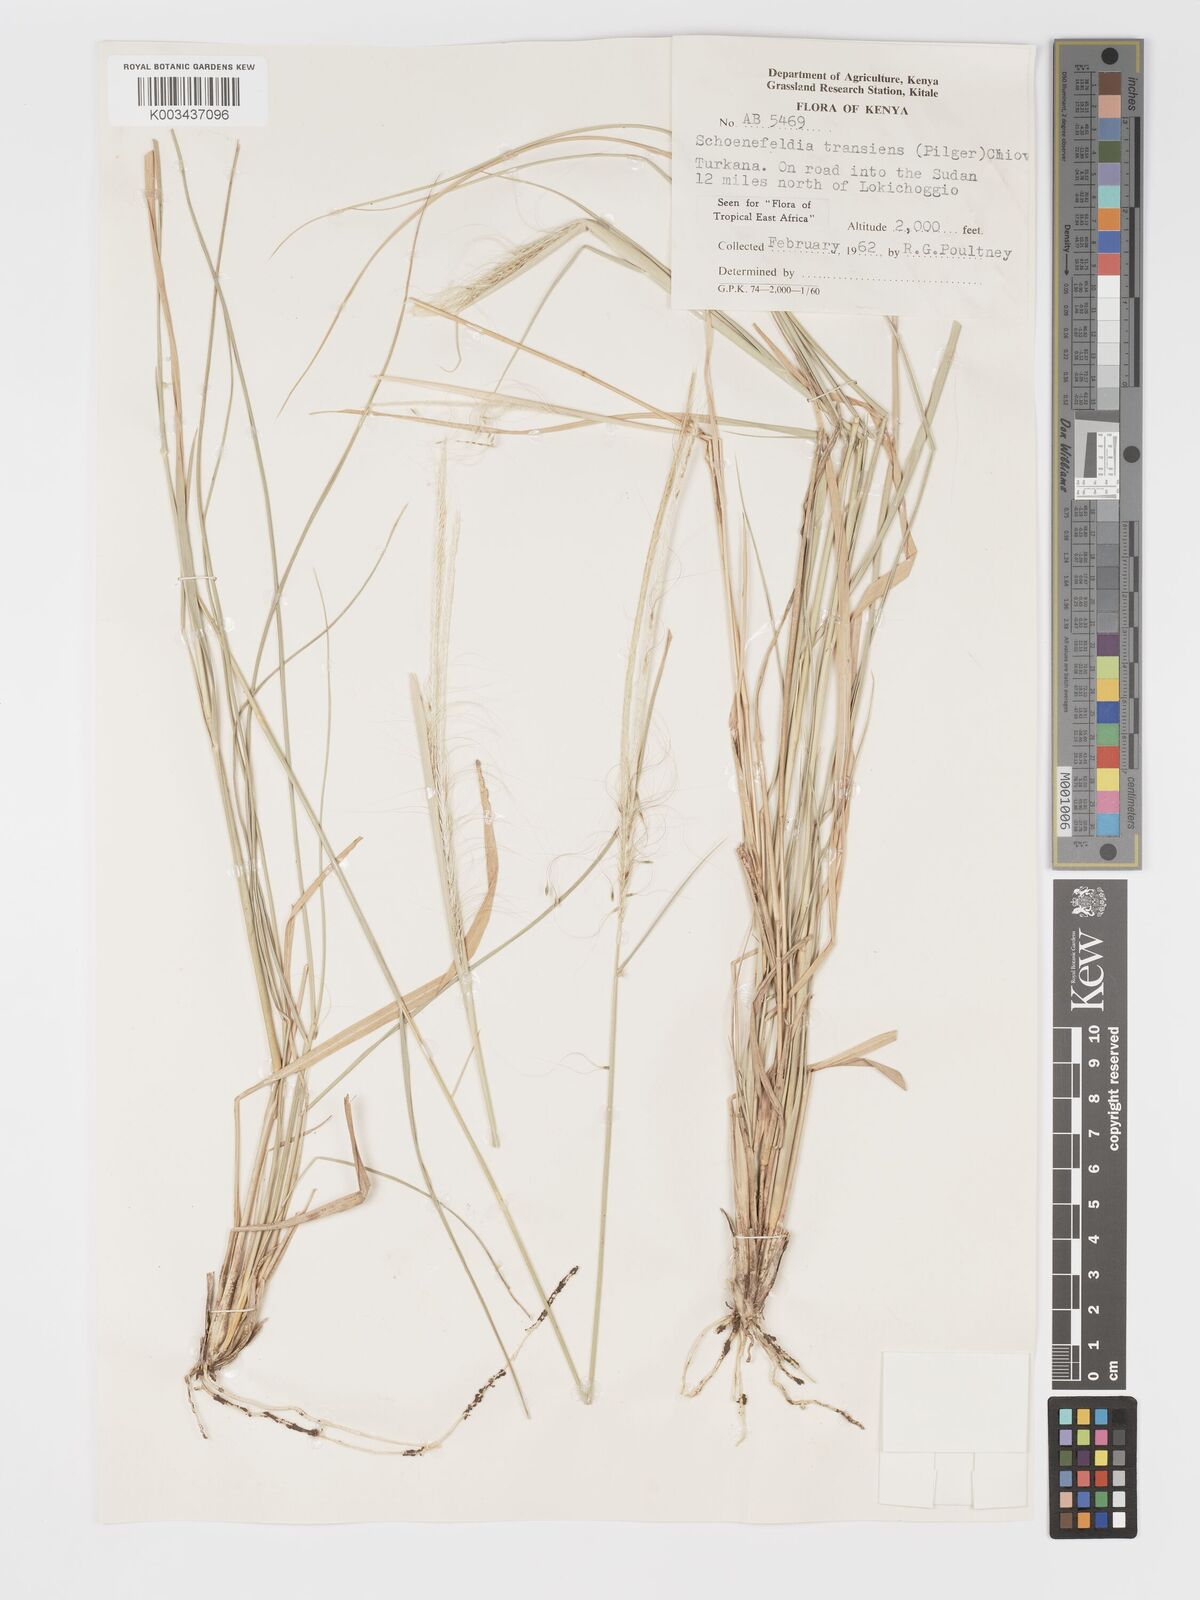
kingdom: Plantae
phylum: Tracheophyta
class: Liliopsida
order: Poales
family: Poaceae
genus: Schoenefeldia
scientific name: Schoenefeldia transiens
